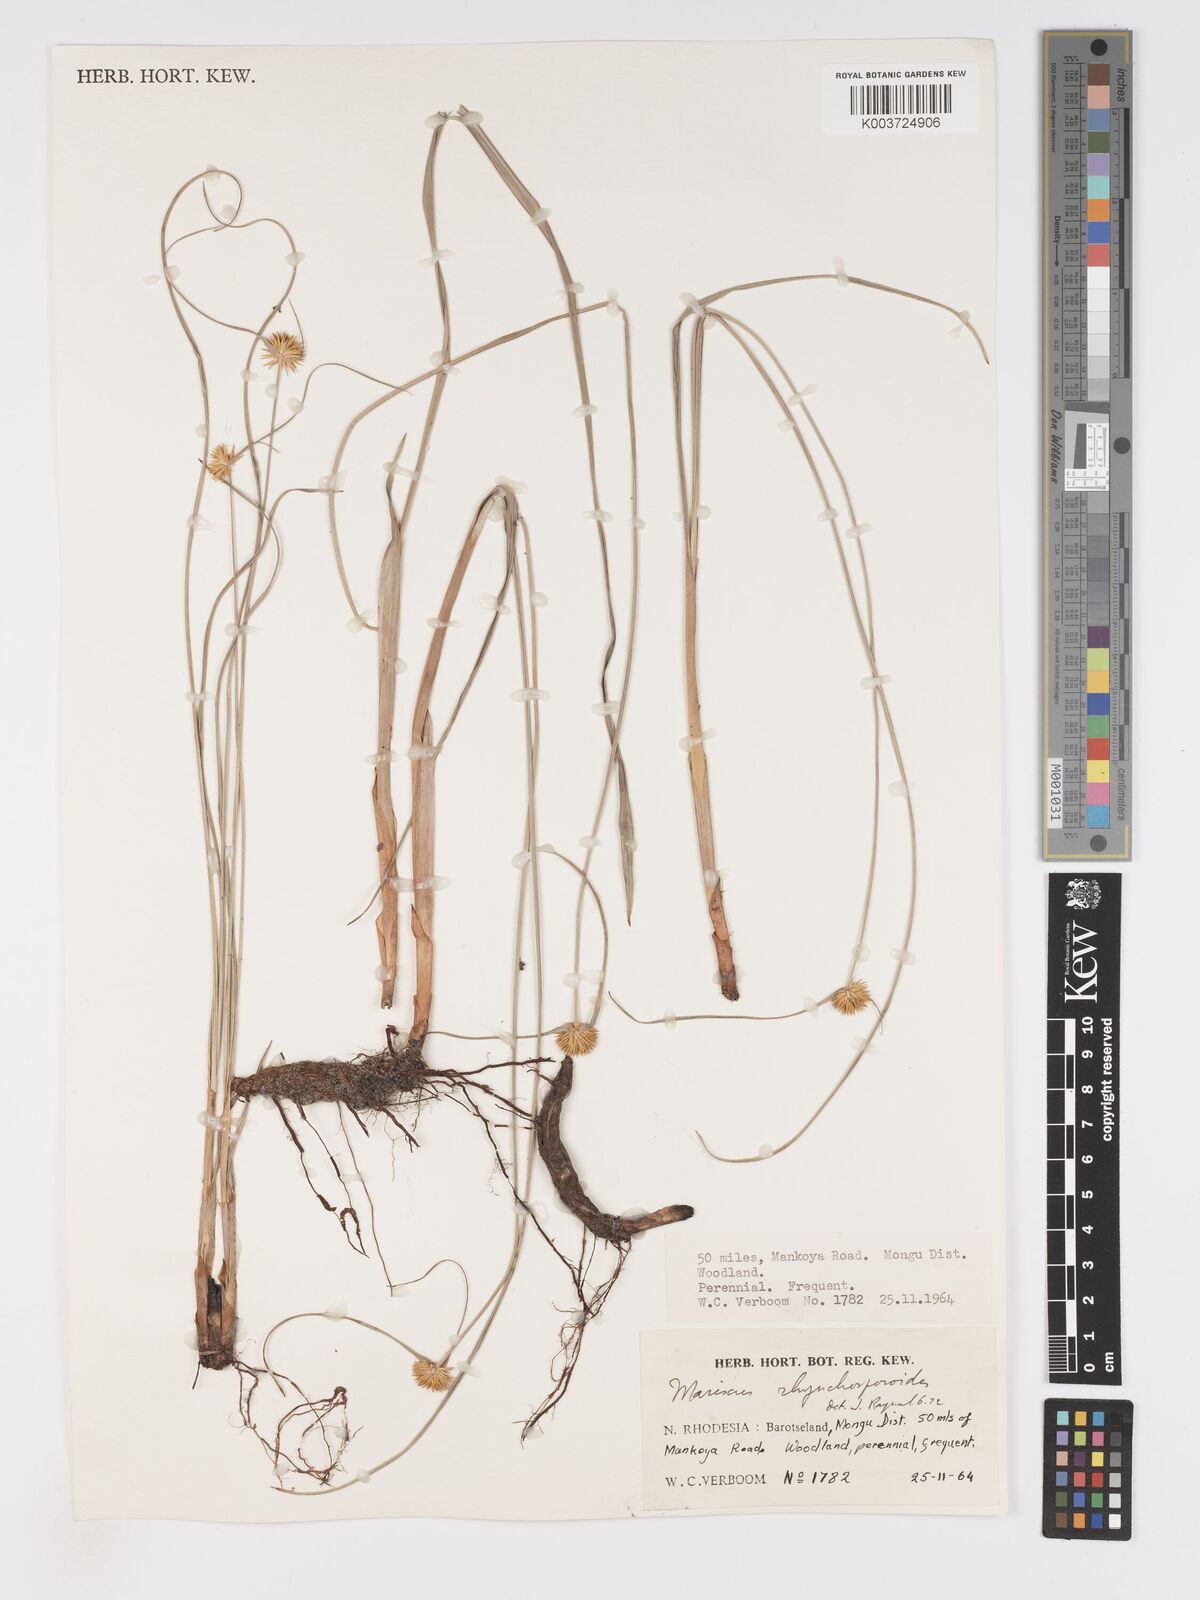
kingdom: Plantae
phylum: Tracheophyta
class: Liliopsida
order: Poales
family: Cyperaceae
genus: Cyperus
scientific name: Cyperus altochrysocephalus
